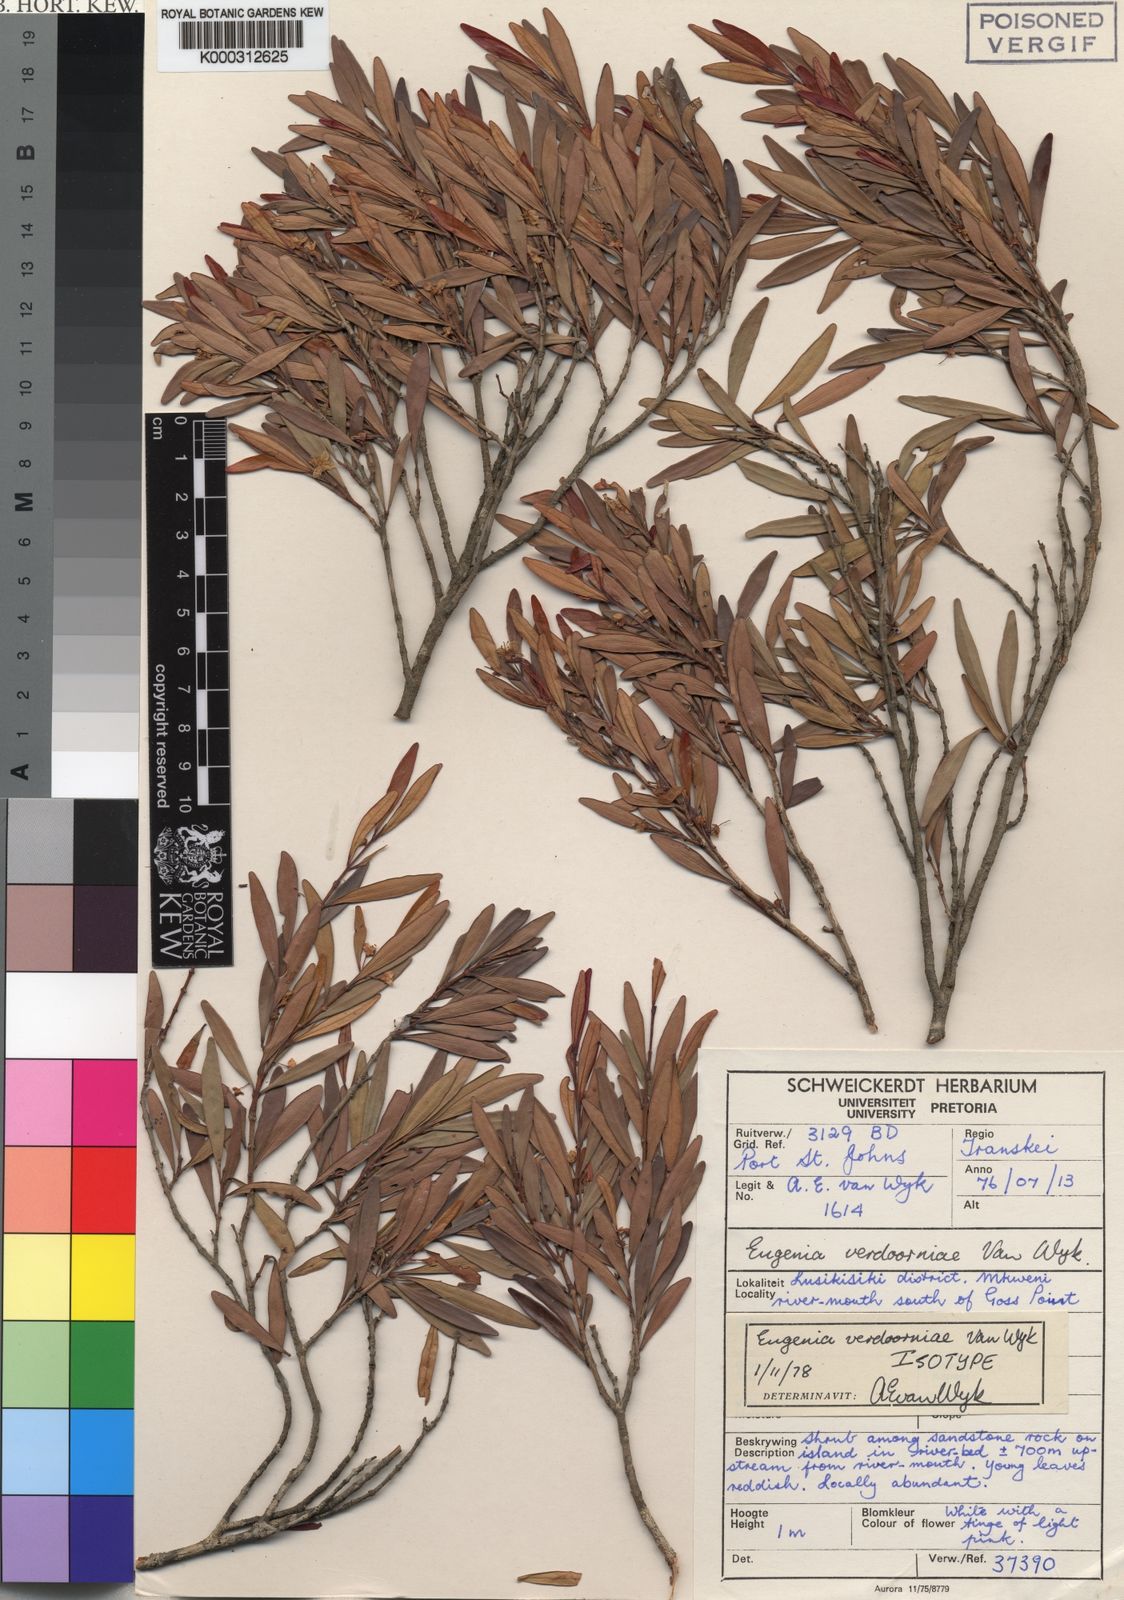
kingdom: Plantae
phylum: Tracheophyta
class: Magnoliopsida
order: Myrtales
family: Myrtaceae
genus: Eugenia
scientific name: Eugenia verdoorniae
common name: Small-leaved myrtle
